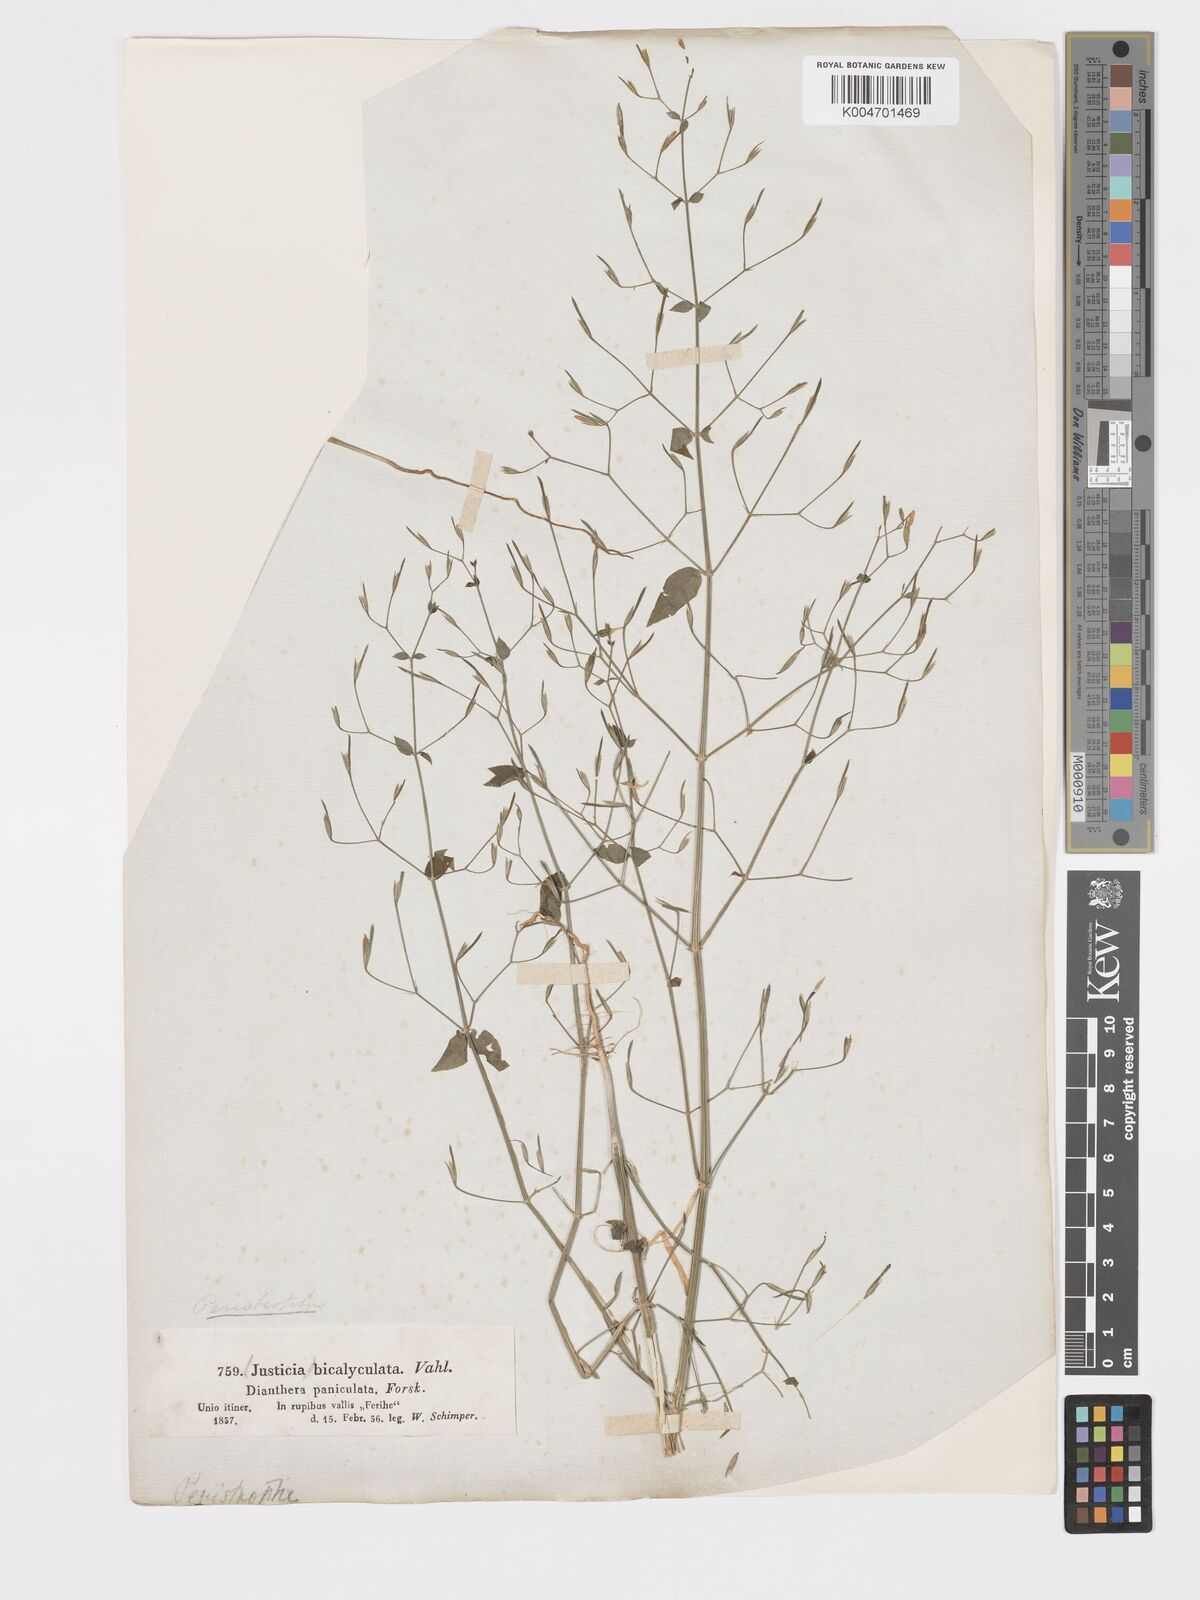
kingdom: Plantae
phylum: Tracheophyta
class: Magnoliopsida
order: Lamiales
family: Acanthaceae
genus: Dicliptera
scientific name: Dicliptera paniculata
